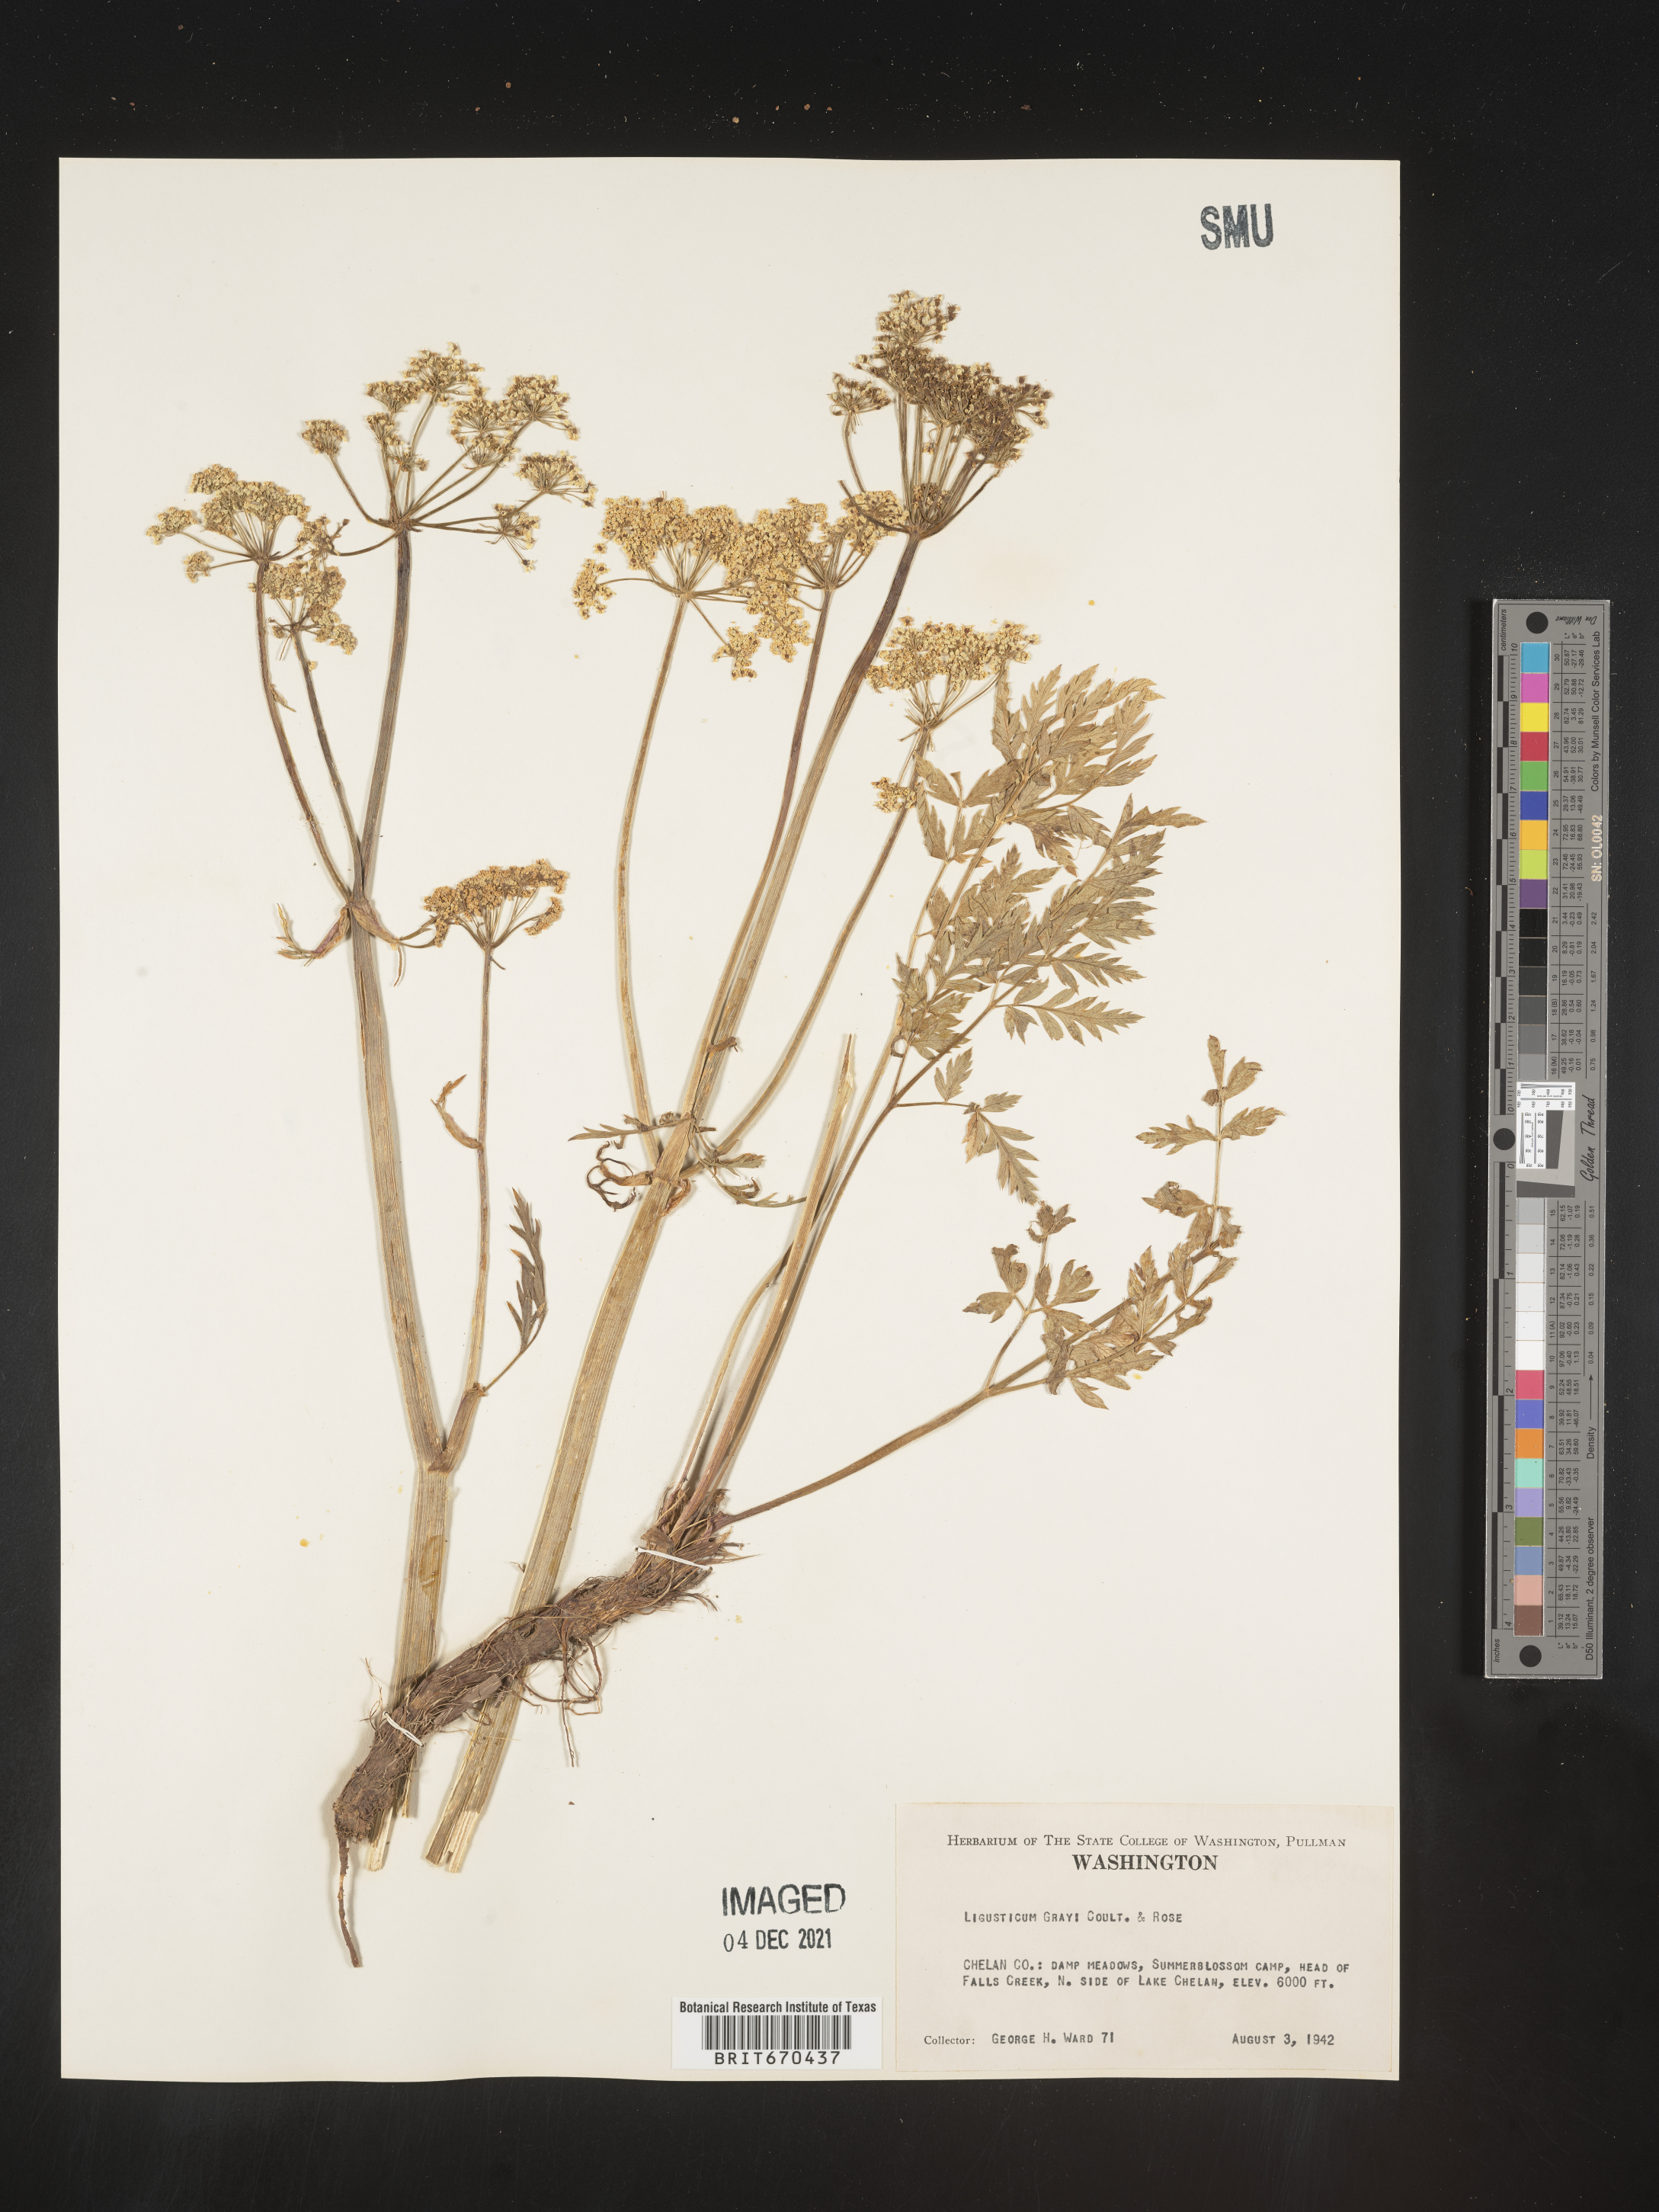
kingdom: Plantae
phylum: Tracheophyta
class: Magnoliopsida
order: Apiales
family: Apiaceae
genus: Ligusticum
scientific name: Ligusticum
